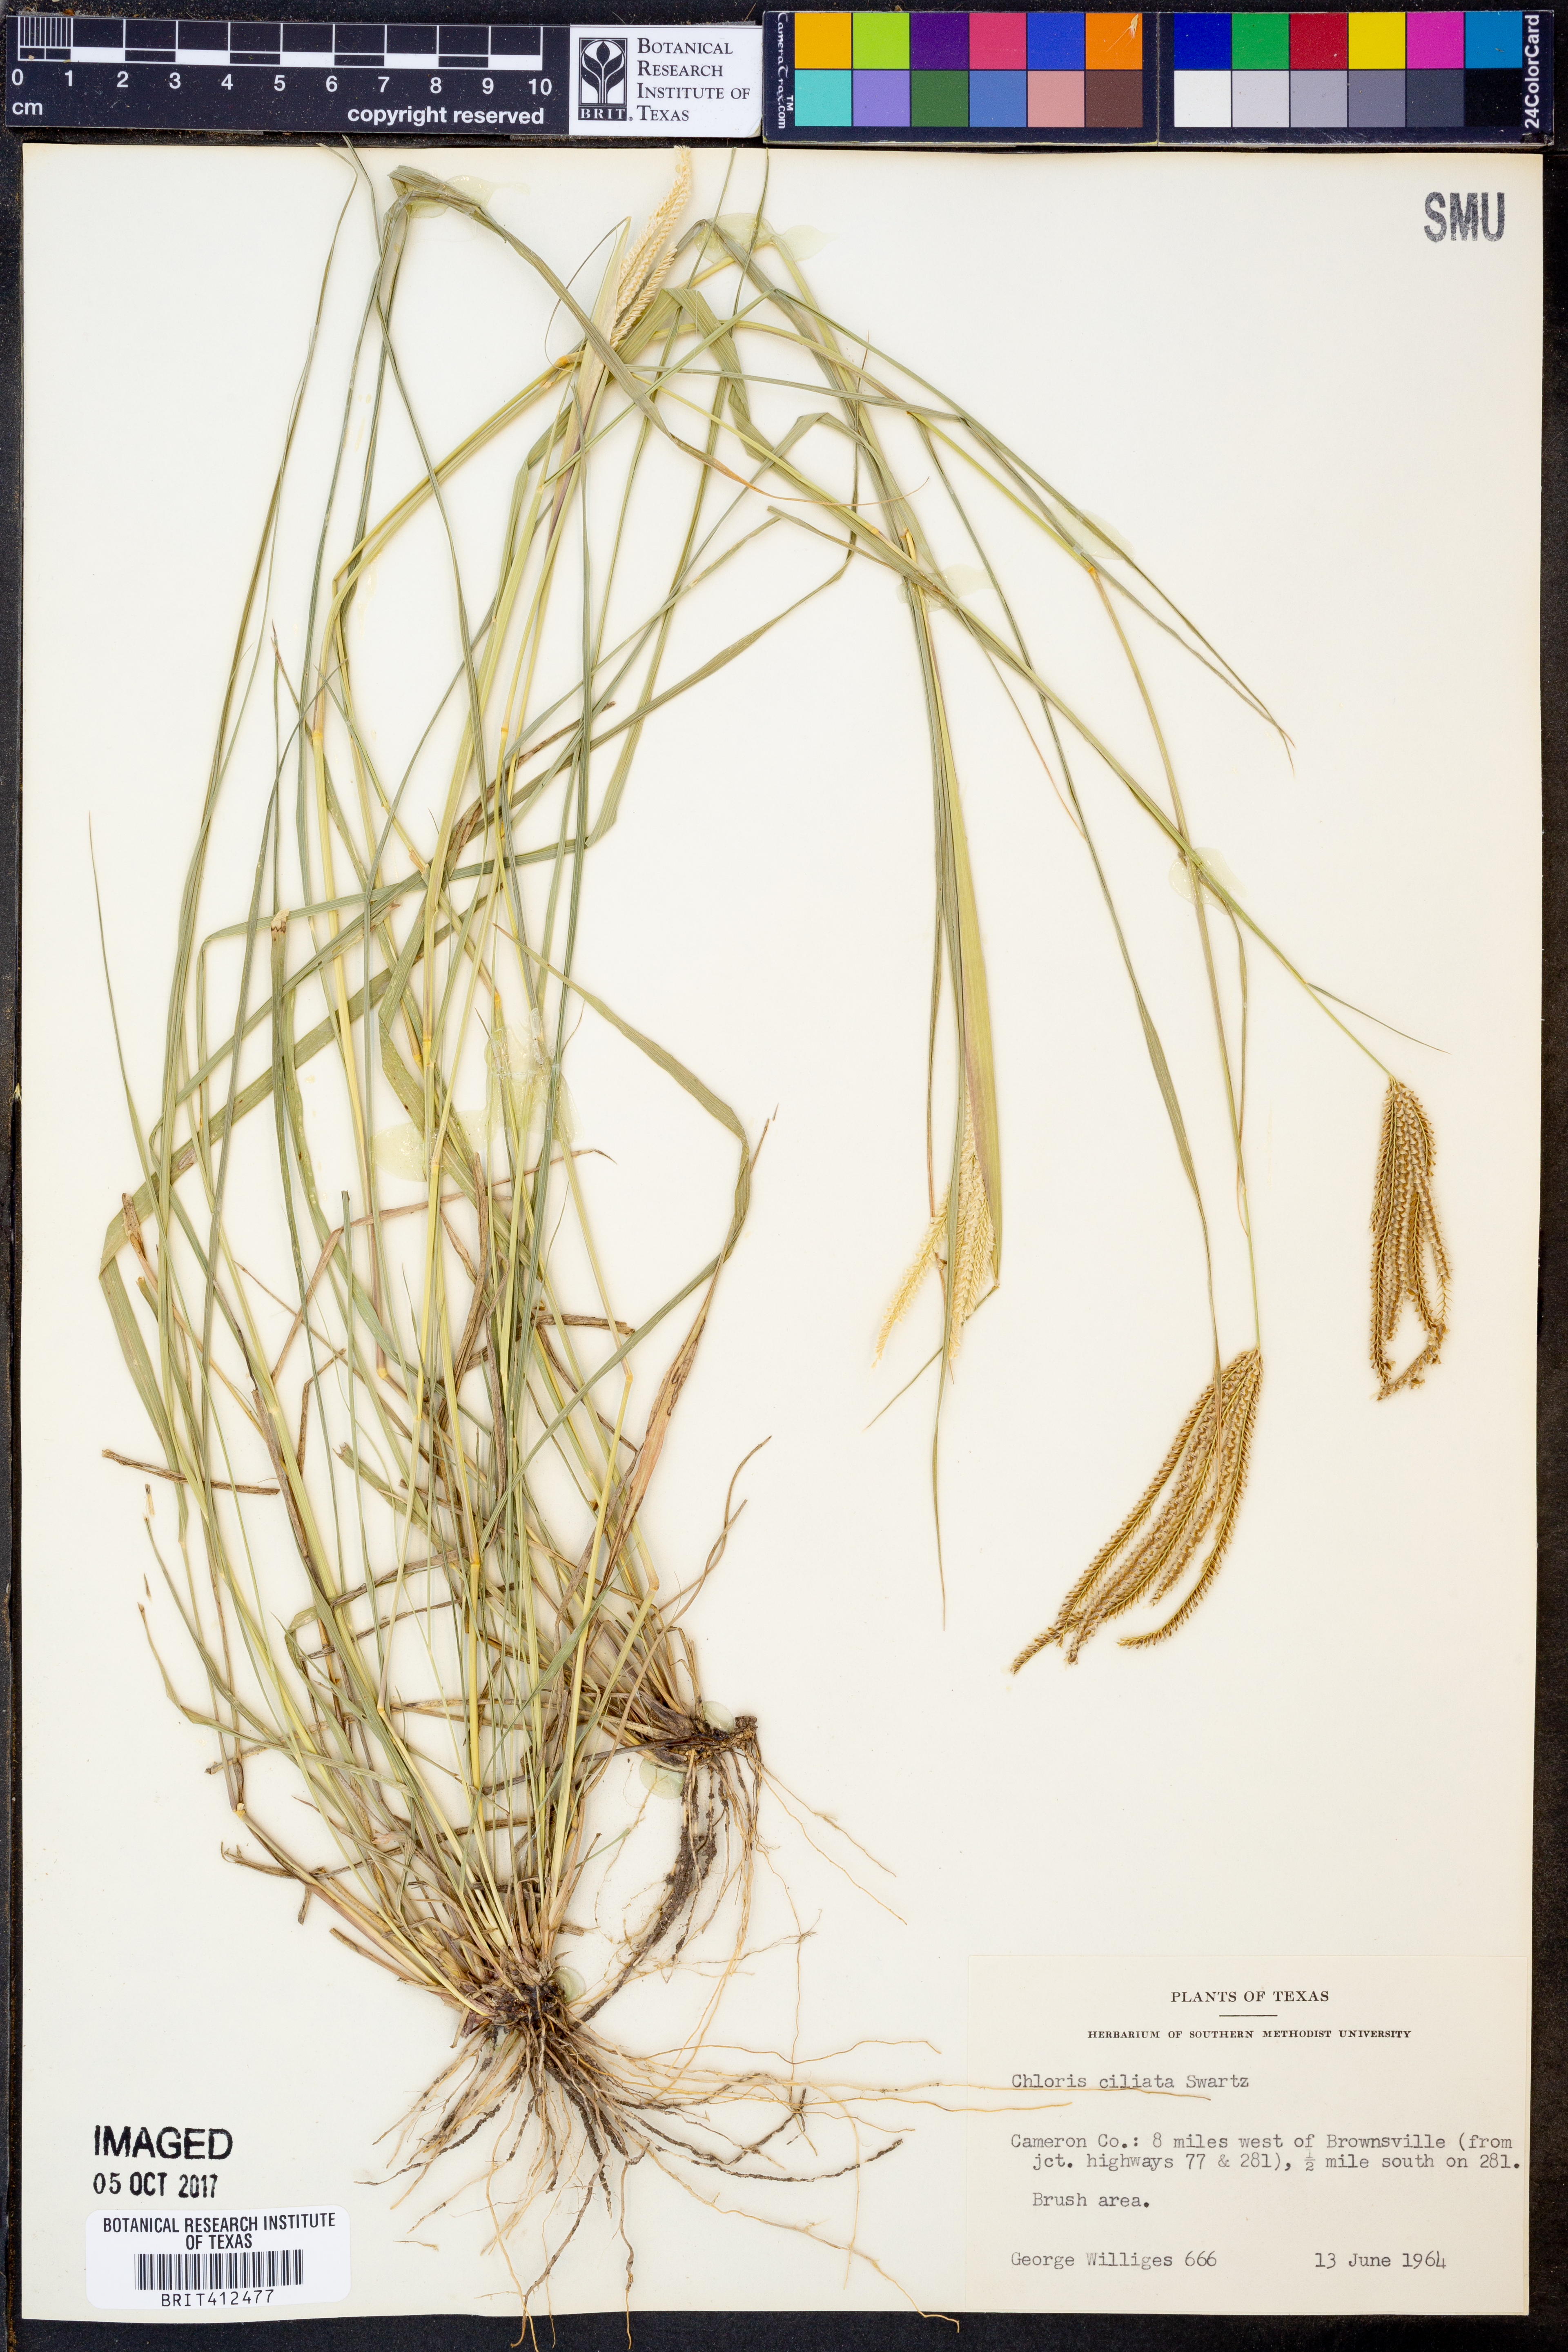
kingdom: Plantae
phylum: Tracheophyta
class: Liliopsida
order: Poales
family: Poaceae
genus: Stapfochloa
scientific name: Stapfochloa ciliata
